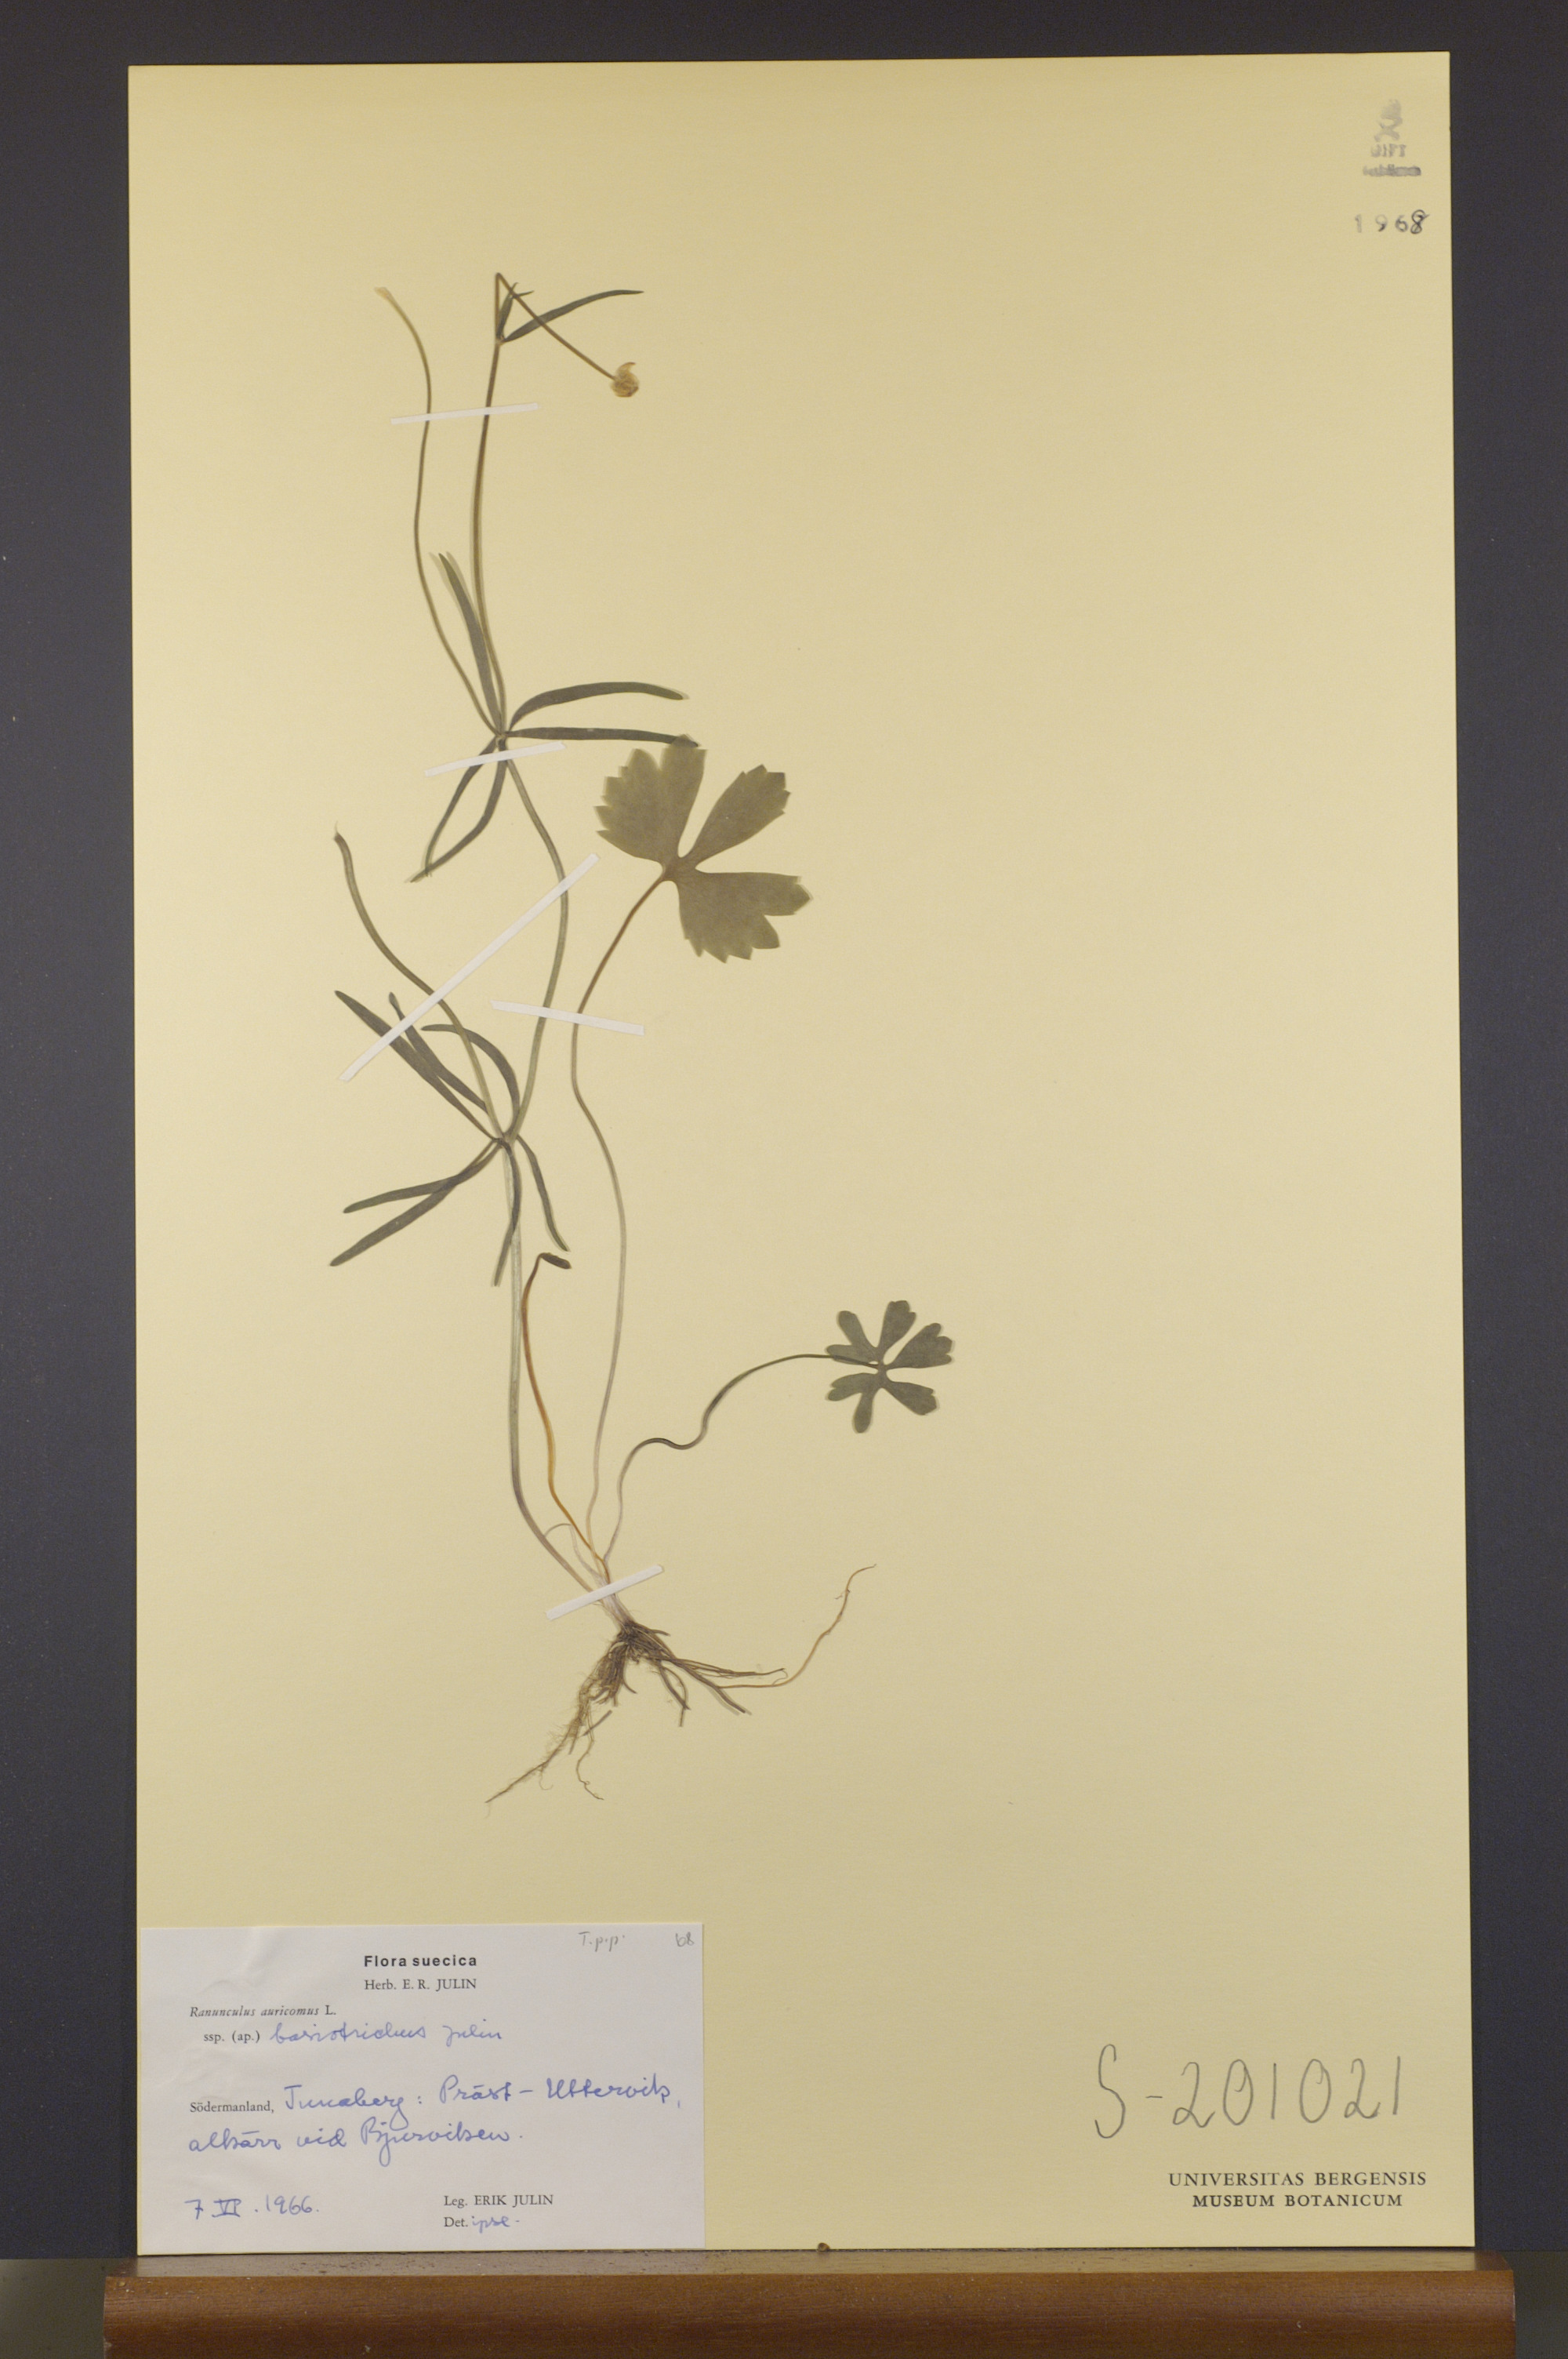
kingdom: Plantae
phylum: Tracheophyta
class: Magnoliopsida
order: Ranunculales
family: Ranunculaceae
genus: Ranunculus
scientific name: Ranunculus basiotrichus
